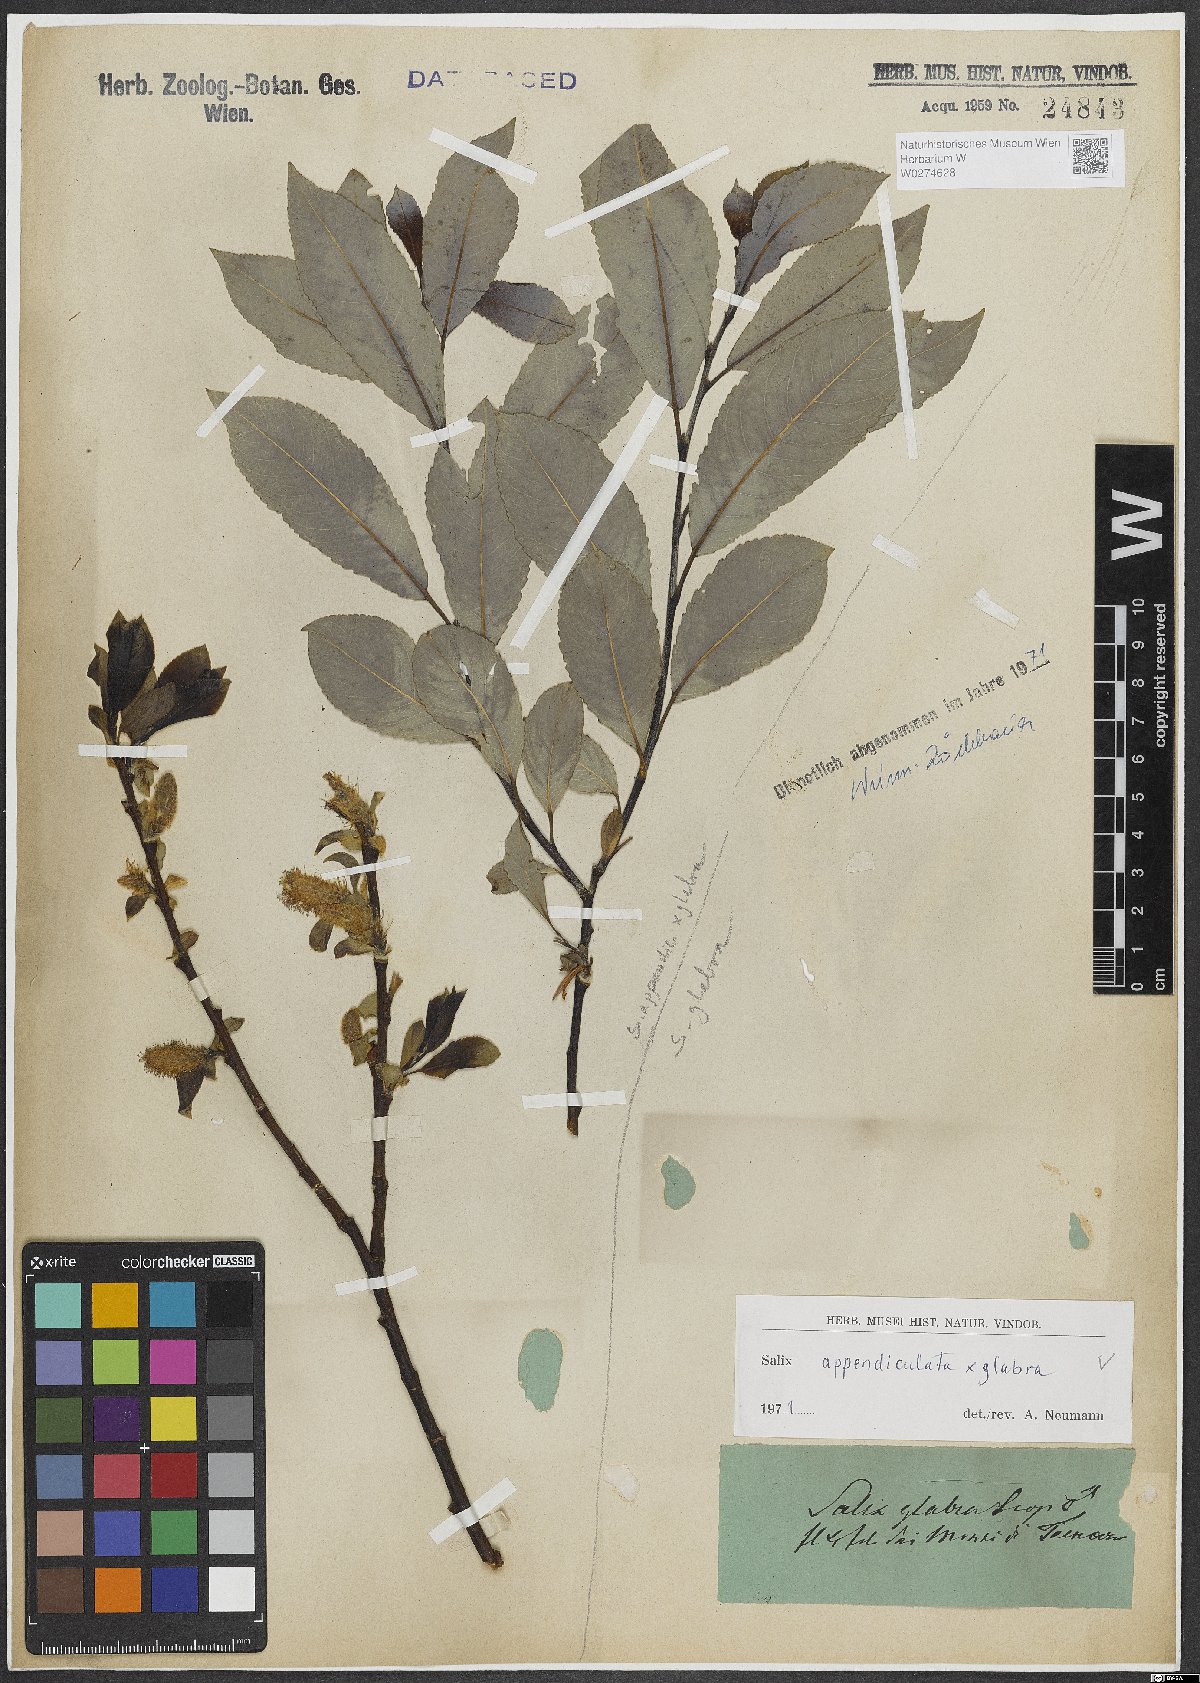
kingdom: Plantae
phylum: Tracheophyta
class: Magnoliopsida
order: Malpighiales
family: Salicaceae
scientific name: Salicaceae
